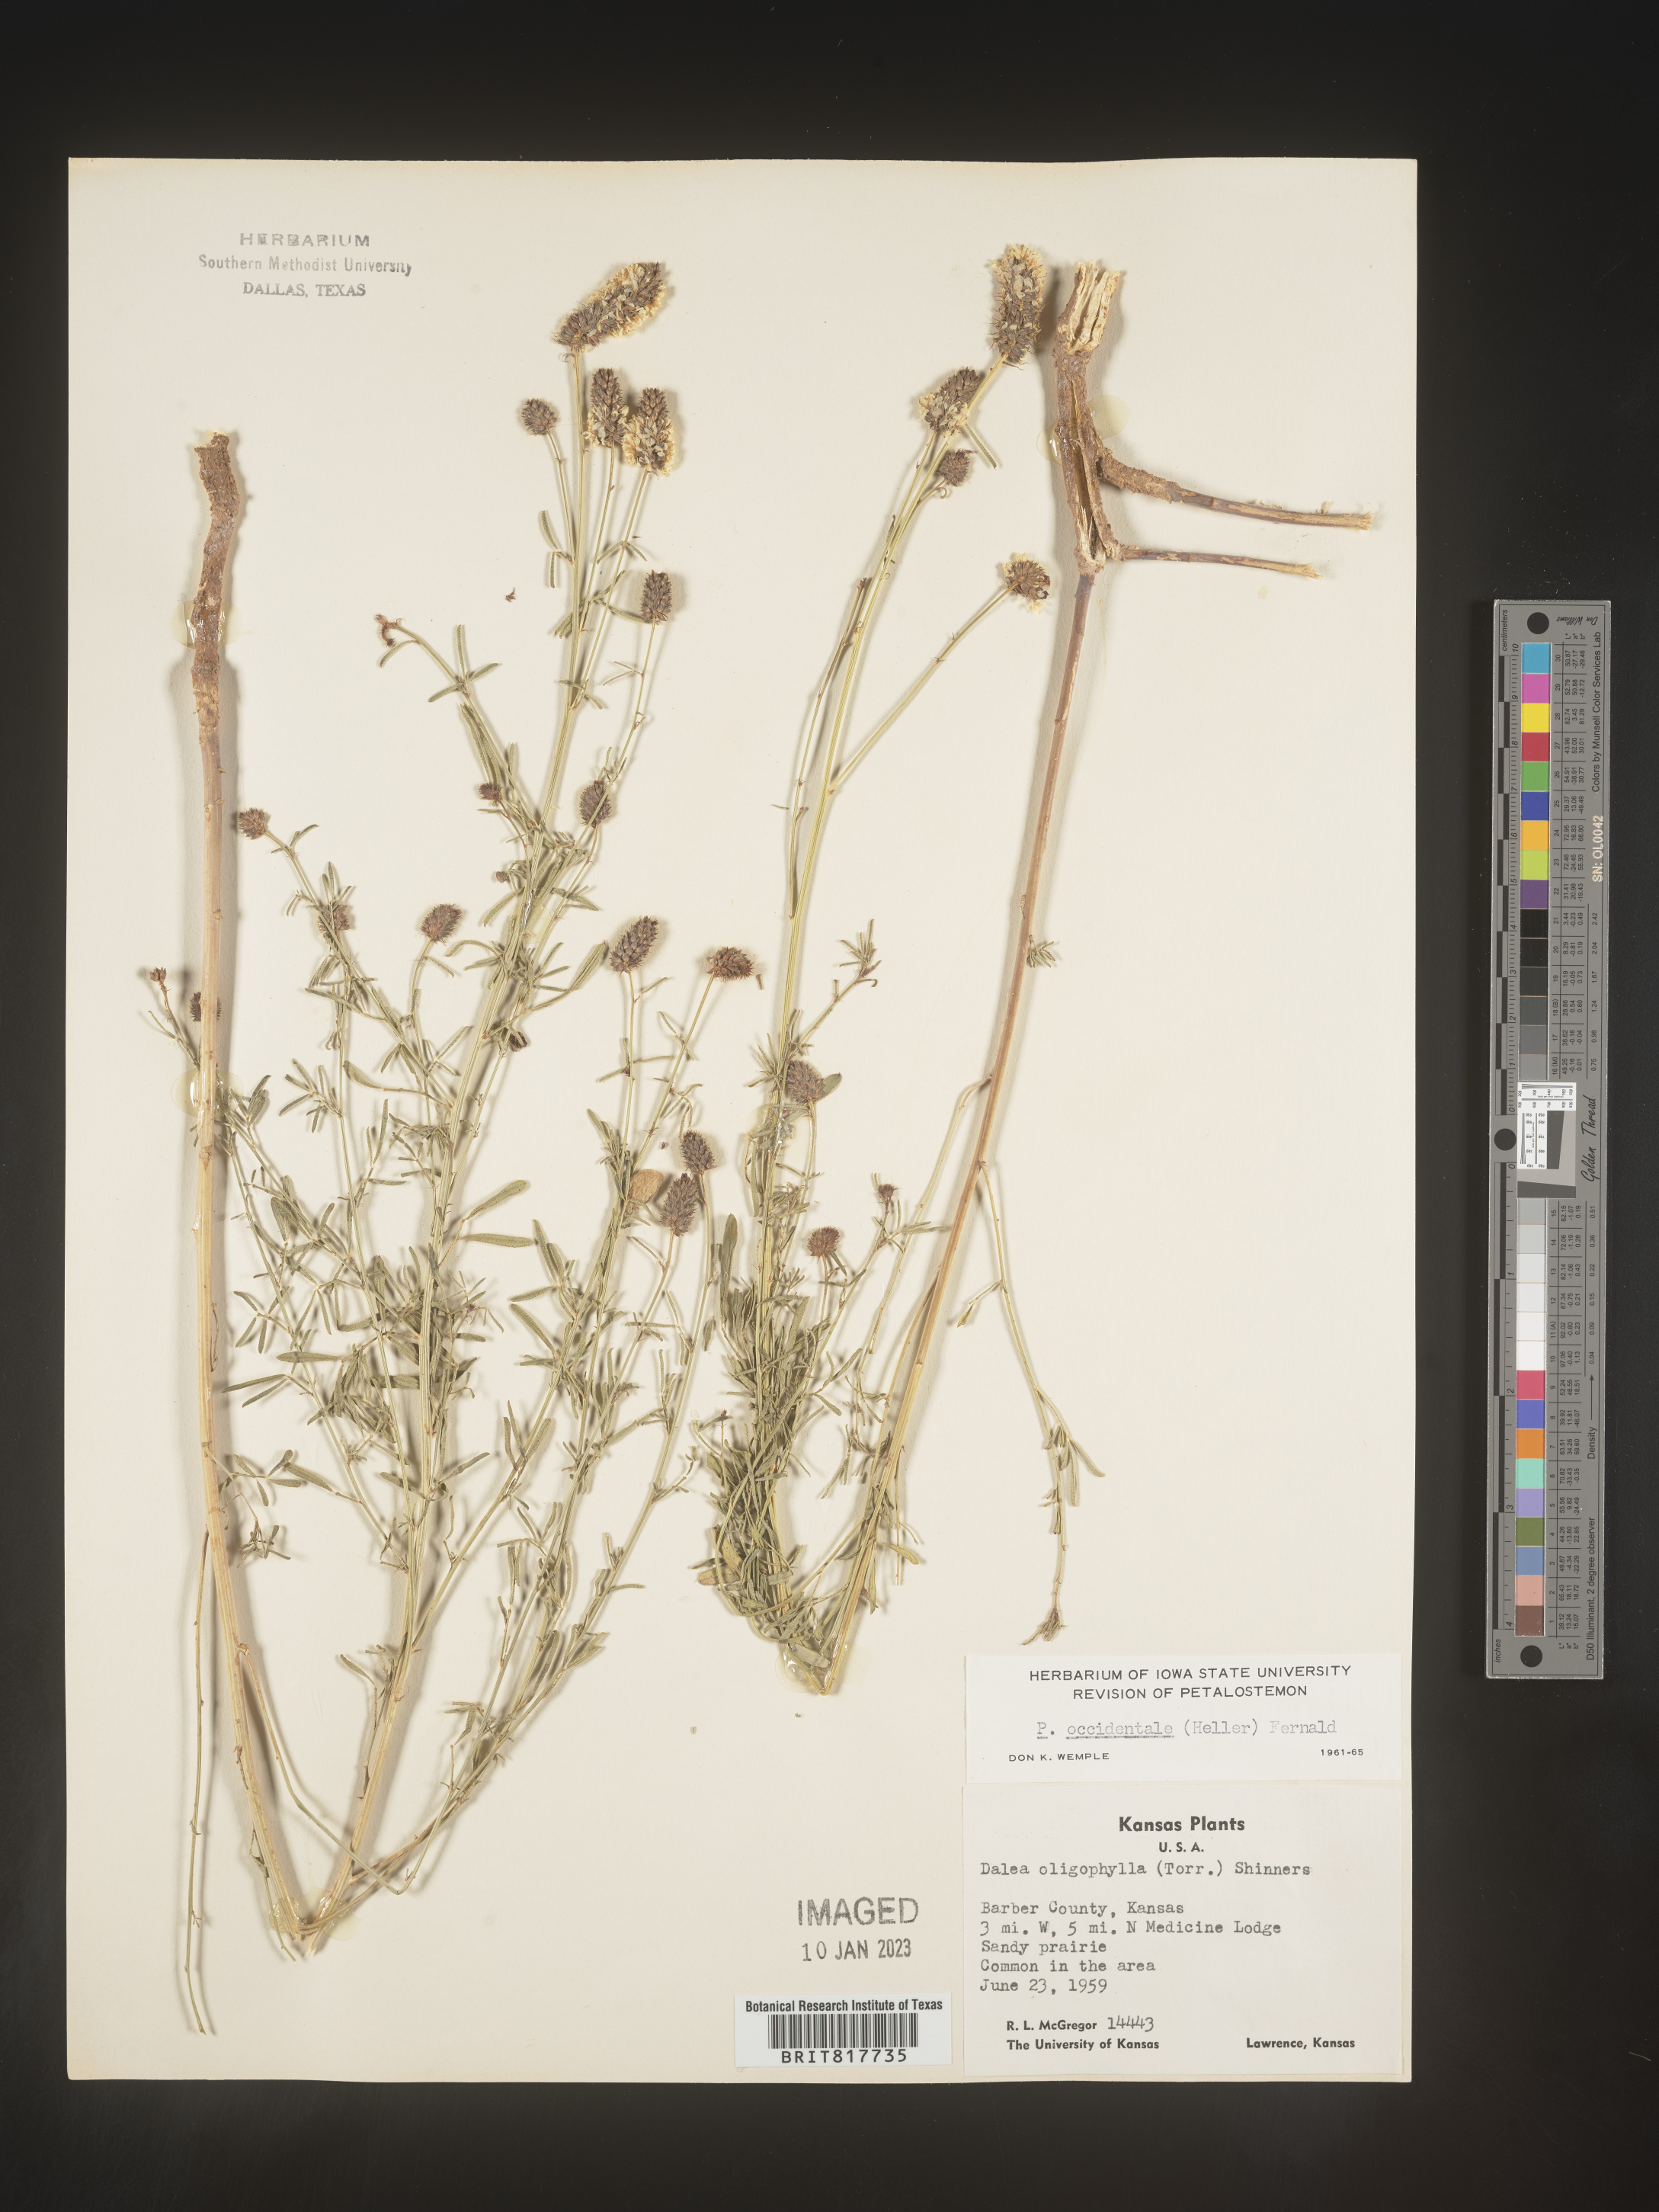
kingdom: Plantae
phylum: Tracheophyta
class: Magnoliopsida
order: Fabales
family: Fabaceae
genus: Dalea
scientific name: Dalea candida
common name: White prairie-clover
